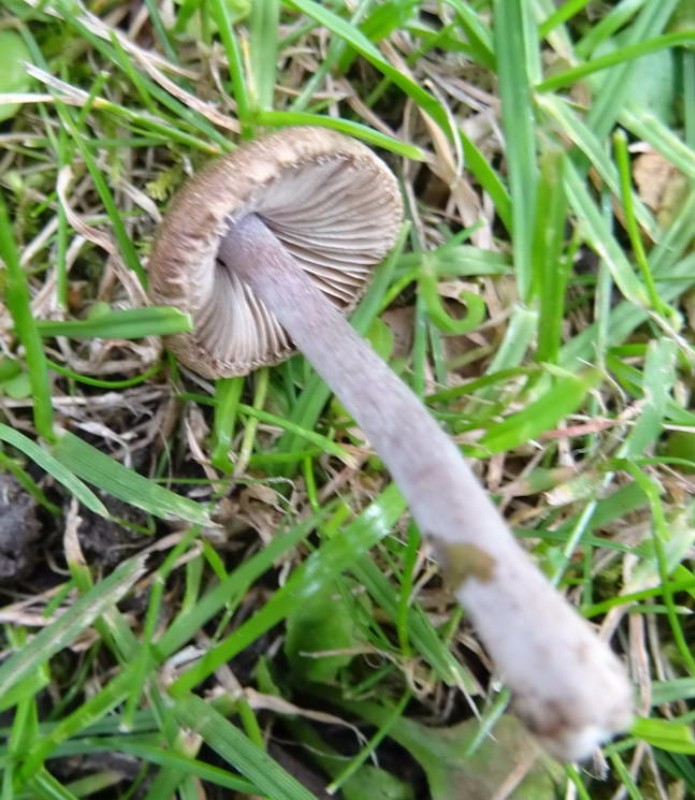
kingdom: Fungi
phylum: Basidiomycota
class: Agaricomycetes
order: Agaricales
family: Inocybaceae
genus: Inocybe
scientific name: Inocybe griseolilacina
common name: lillagrå trævlhat
